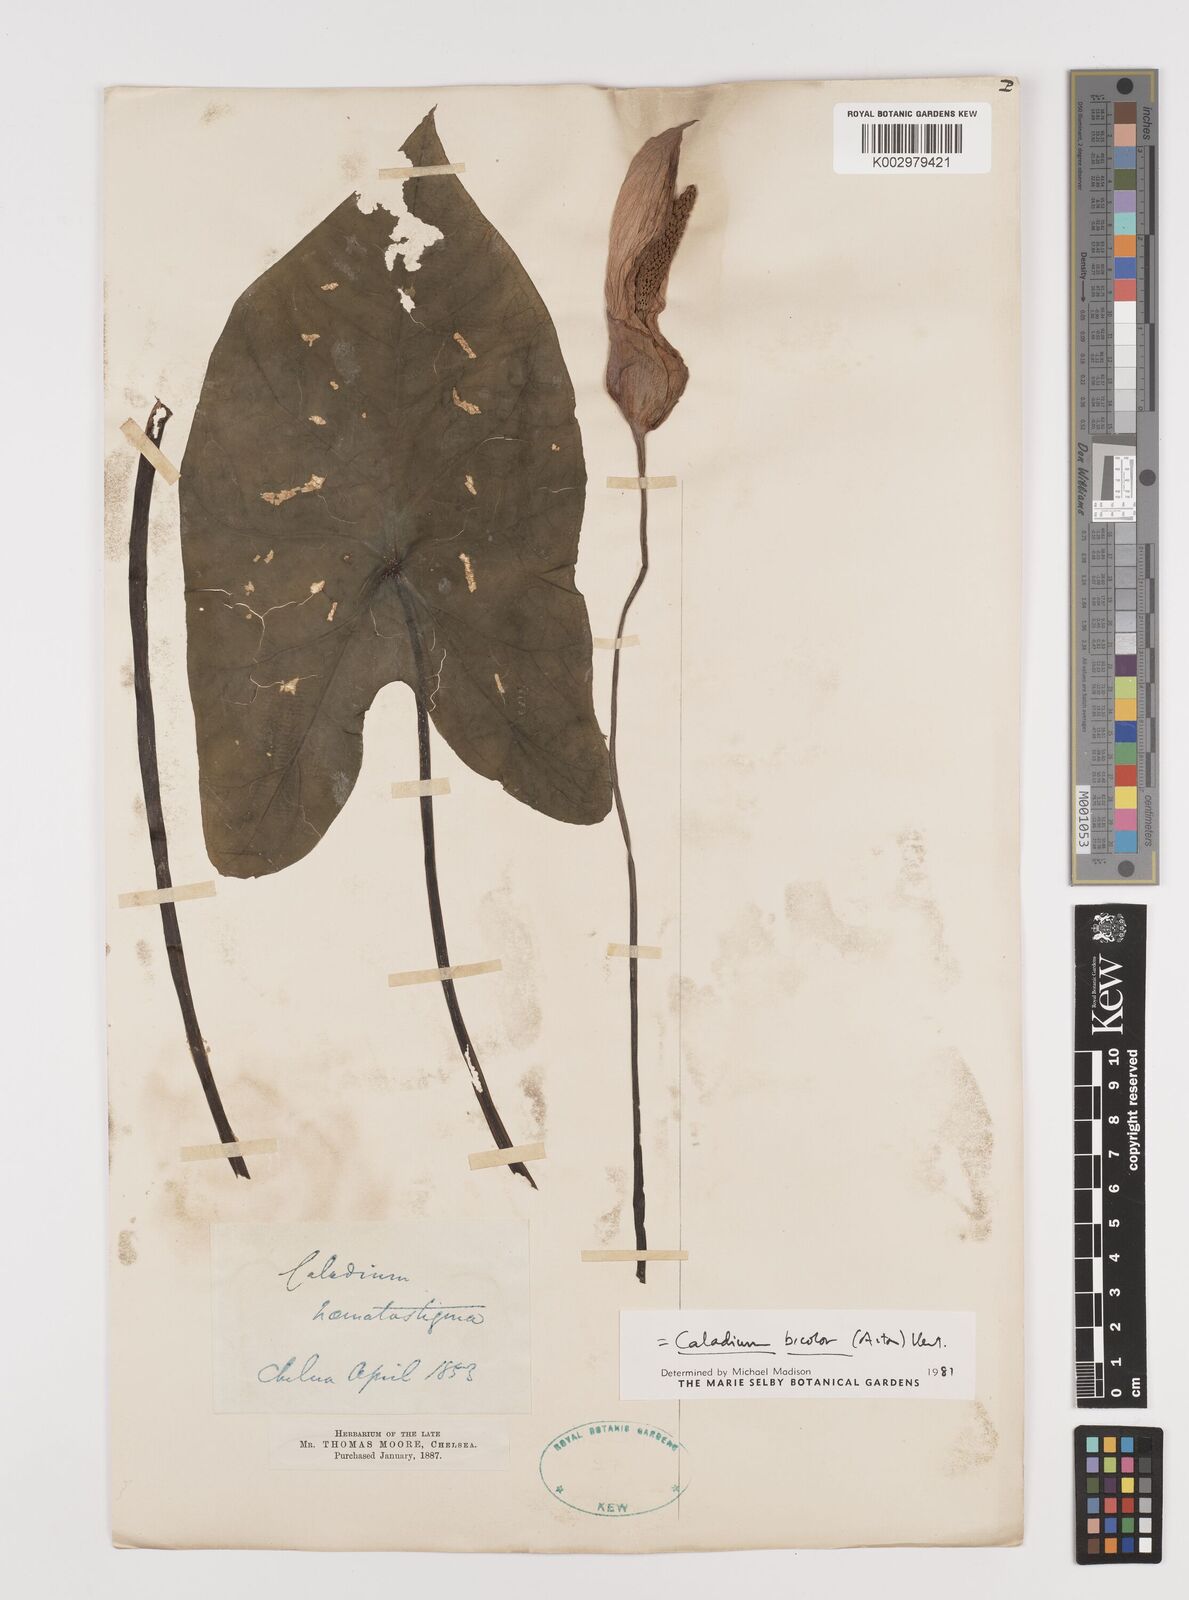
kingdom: Plantae
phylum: Tracheophyta
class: Liliopsida
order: Alismatales
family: Araceae
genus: Caladium
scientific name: Caladium bicolor
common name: Artist's pallet
